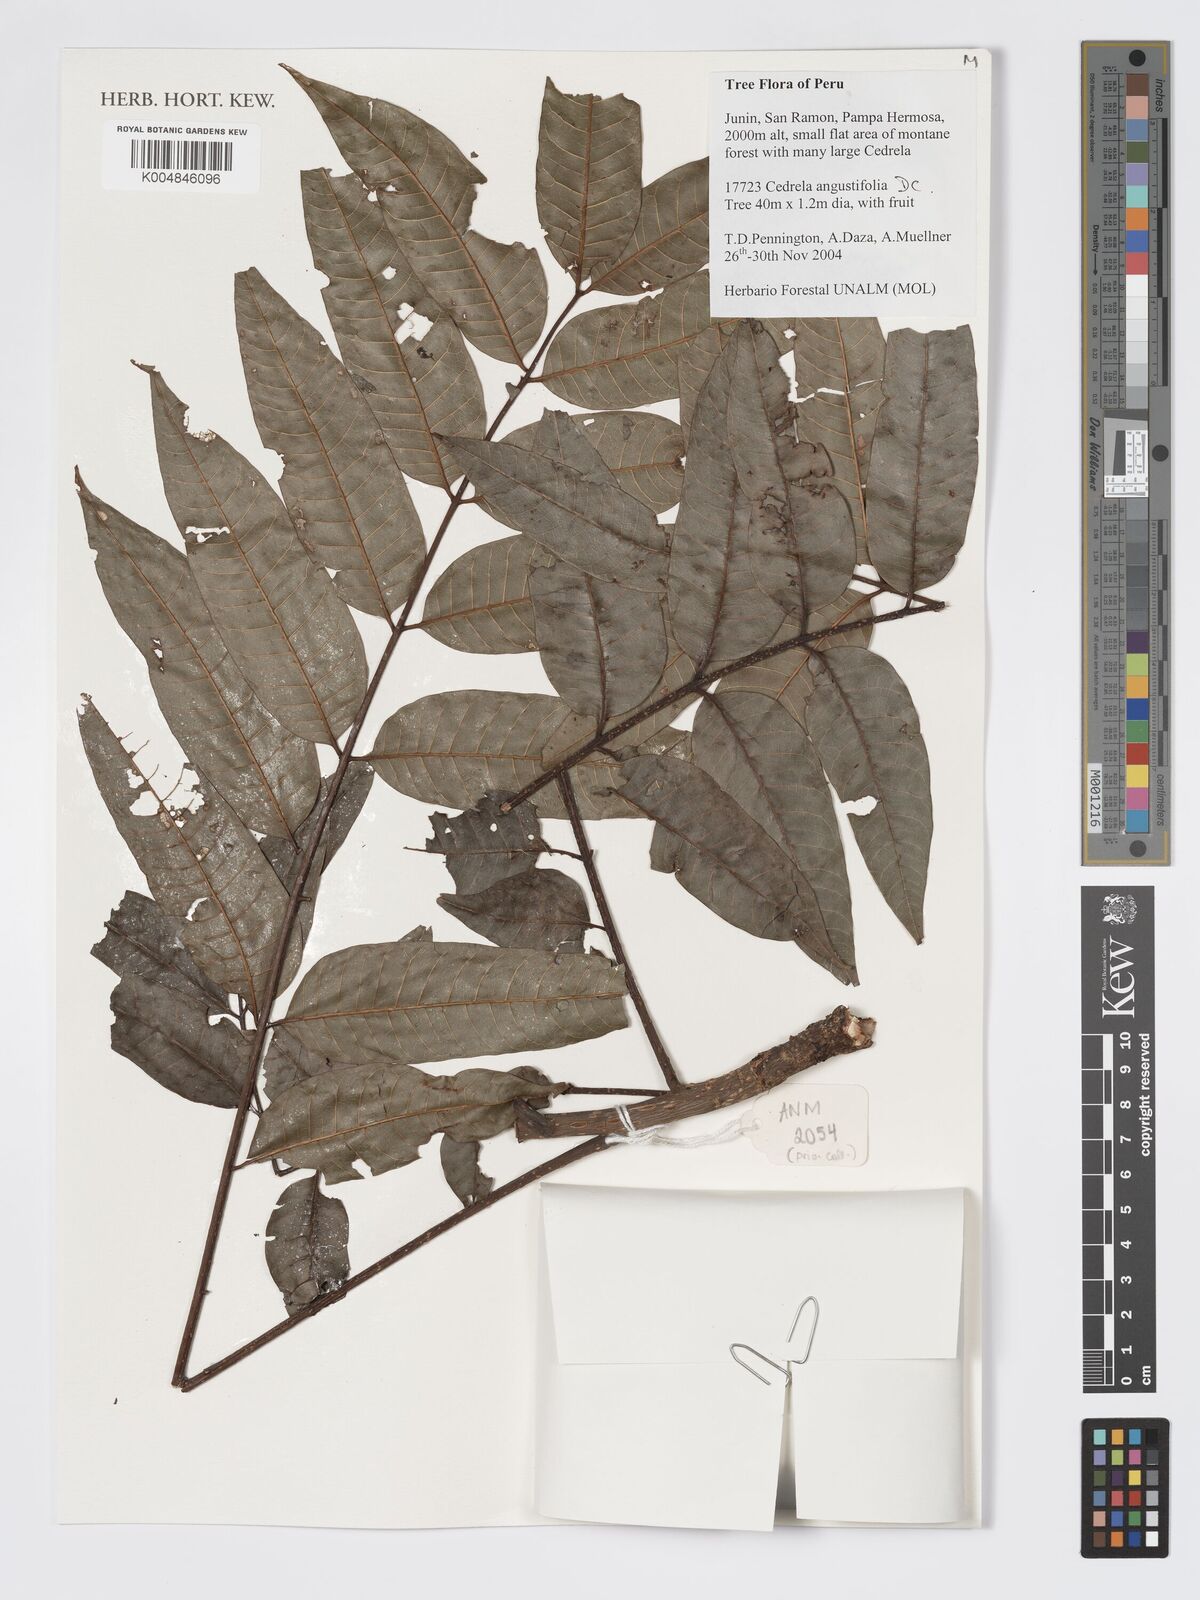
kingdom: Plantae
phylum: Tracheophyta
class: Magnoliopsida
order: Sapindales
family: Meliaceae
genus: Cedrela
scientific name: Cedrela odorata
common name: Red cedar
